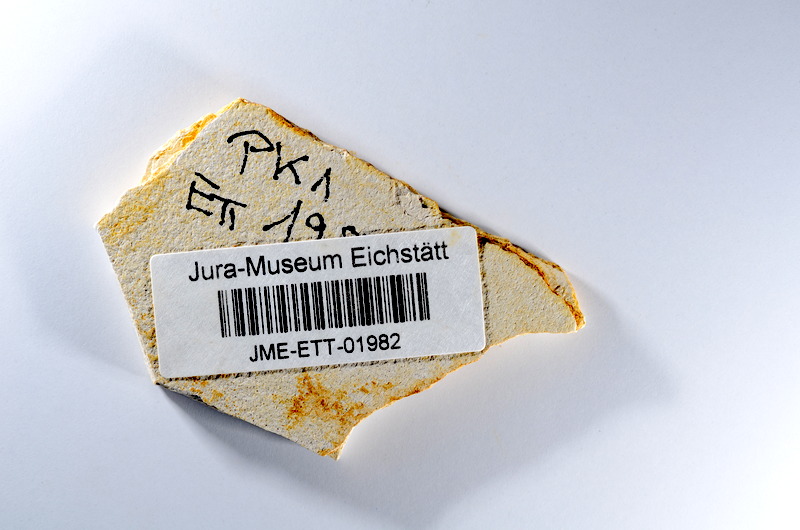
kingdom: Animalia
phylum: Chordata
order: Salmoniformes
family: Orthogonikleithridae
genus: Orthogonikleithrus
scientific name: Orthogonikleithrus hoelli
